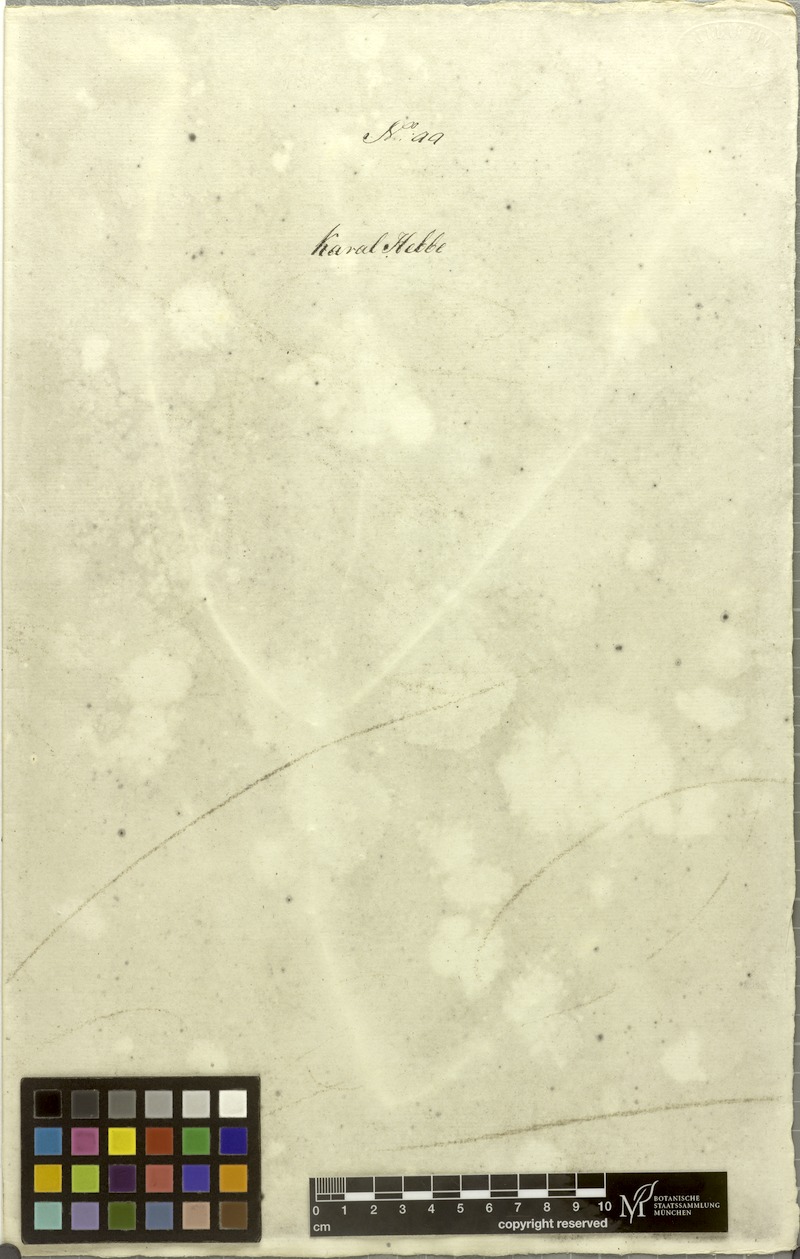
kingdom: Plantae
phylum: Tracheophyta
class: Magnoliopsida
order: Caryophyllales
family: Amaranthaceae
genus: Achyranthes
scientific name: Achyranthes aspera
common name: Devil's horsewhip
